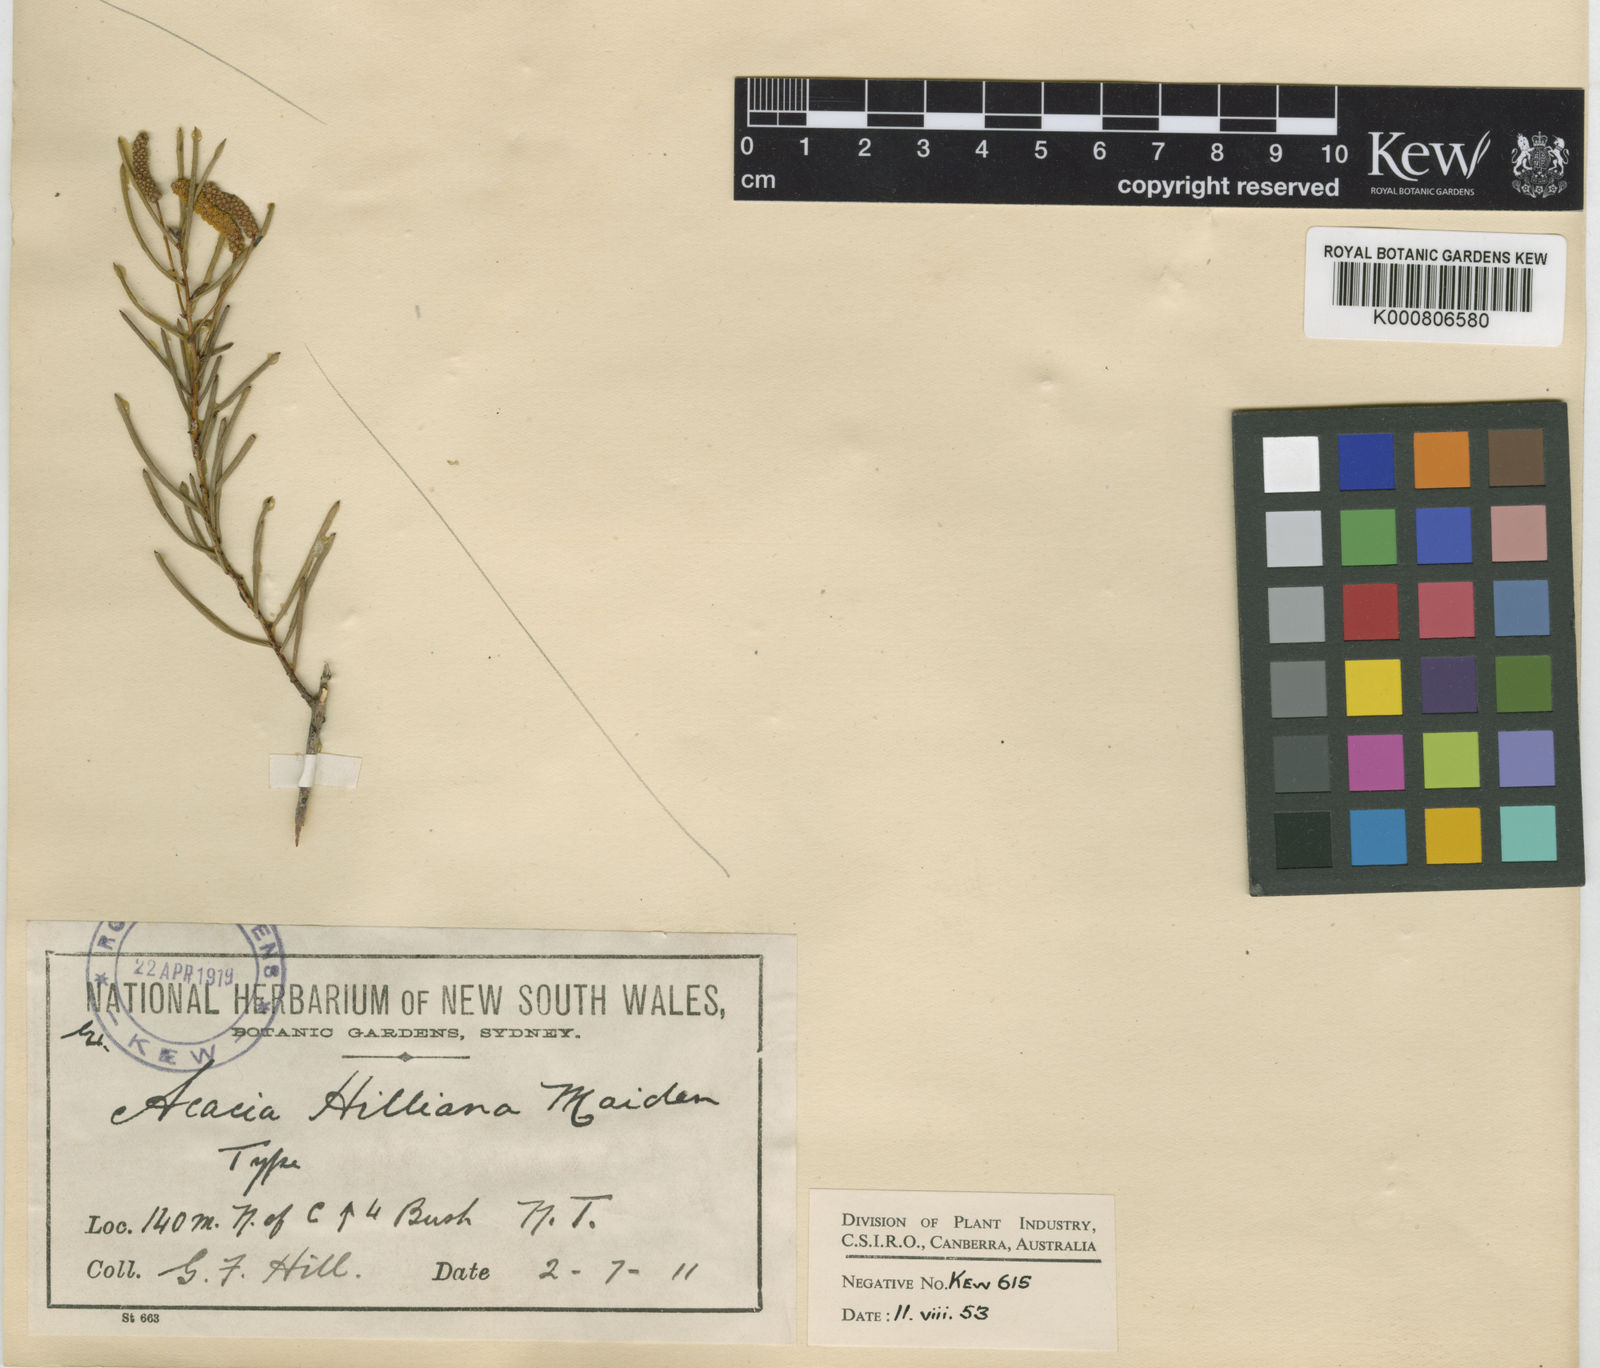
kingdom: Plantae
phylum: Tracheophyta
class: Magnoliopsida
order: Fabales
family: Fabaceae
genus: Acacia
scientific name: Acacia hilliana
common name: Hill's tabletop wattle
